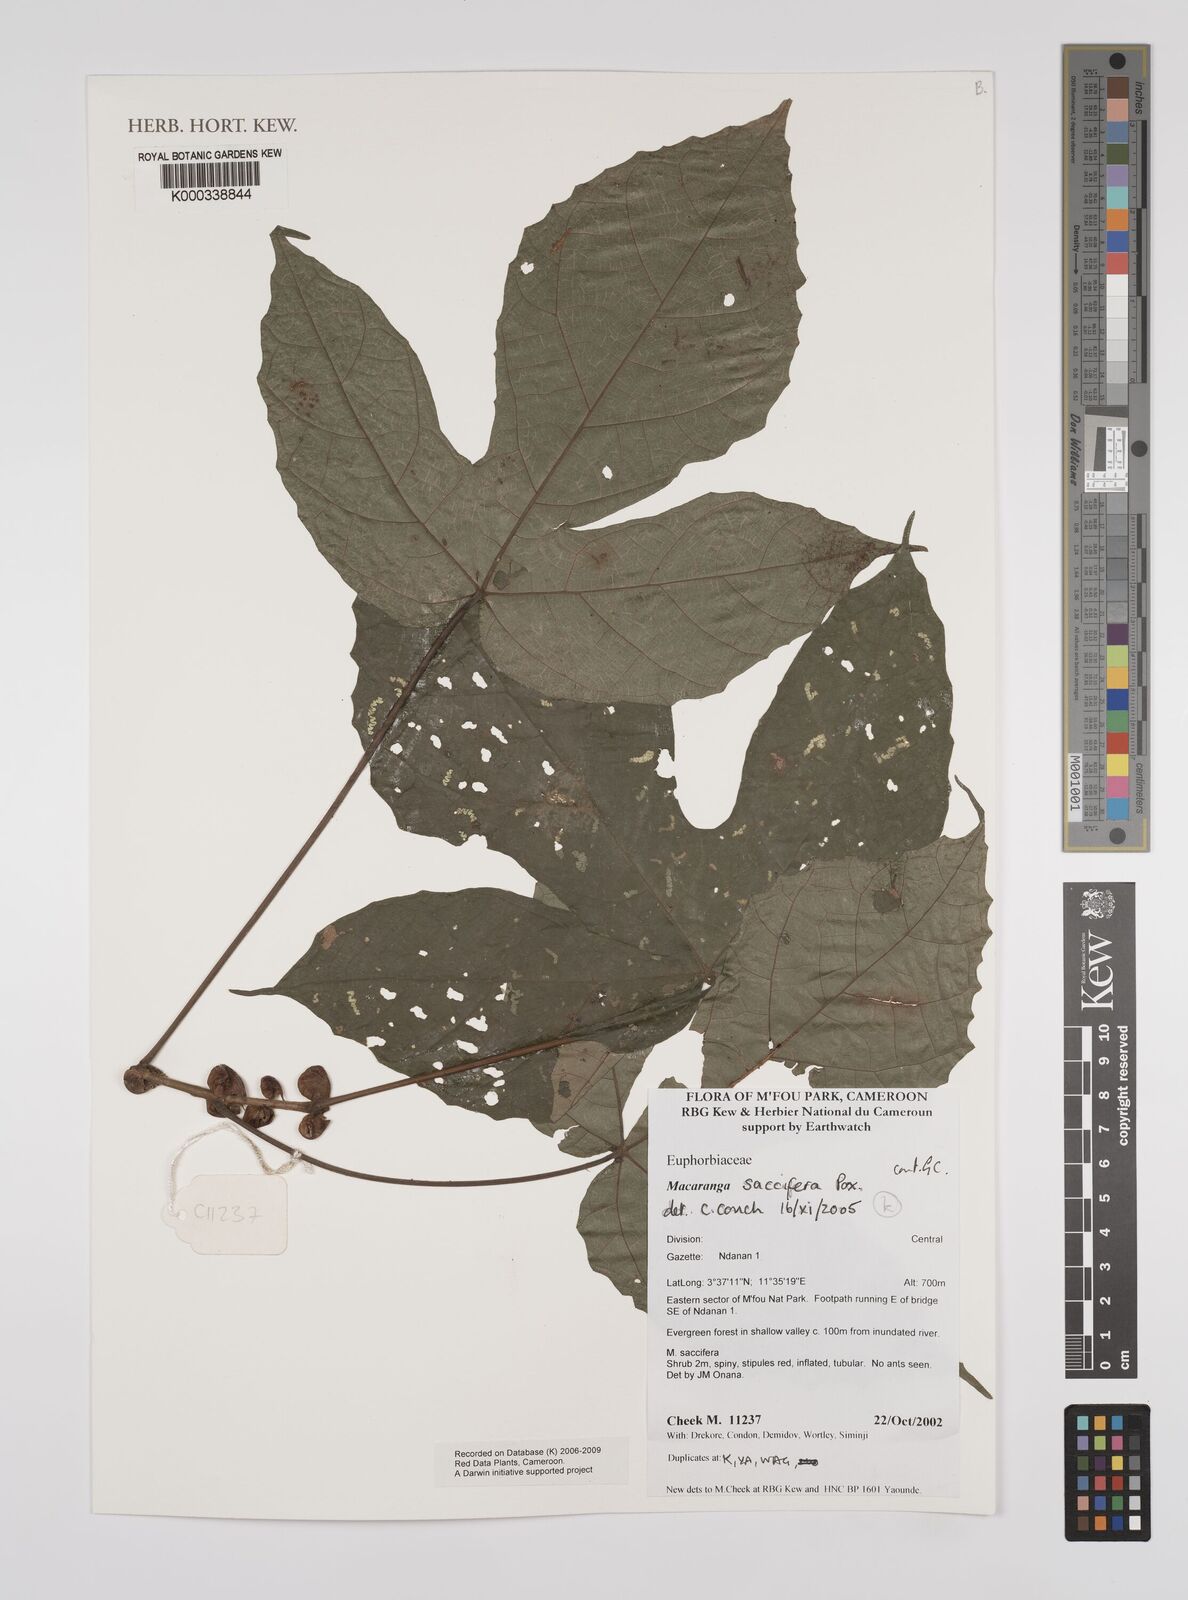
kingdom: Plantae
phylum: Tracheophyta
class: Magnoliopsida
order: Malpighiales
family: Euphorbiaceae
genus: Macaranga
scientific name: Macaranga saccifera
